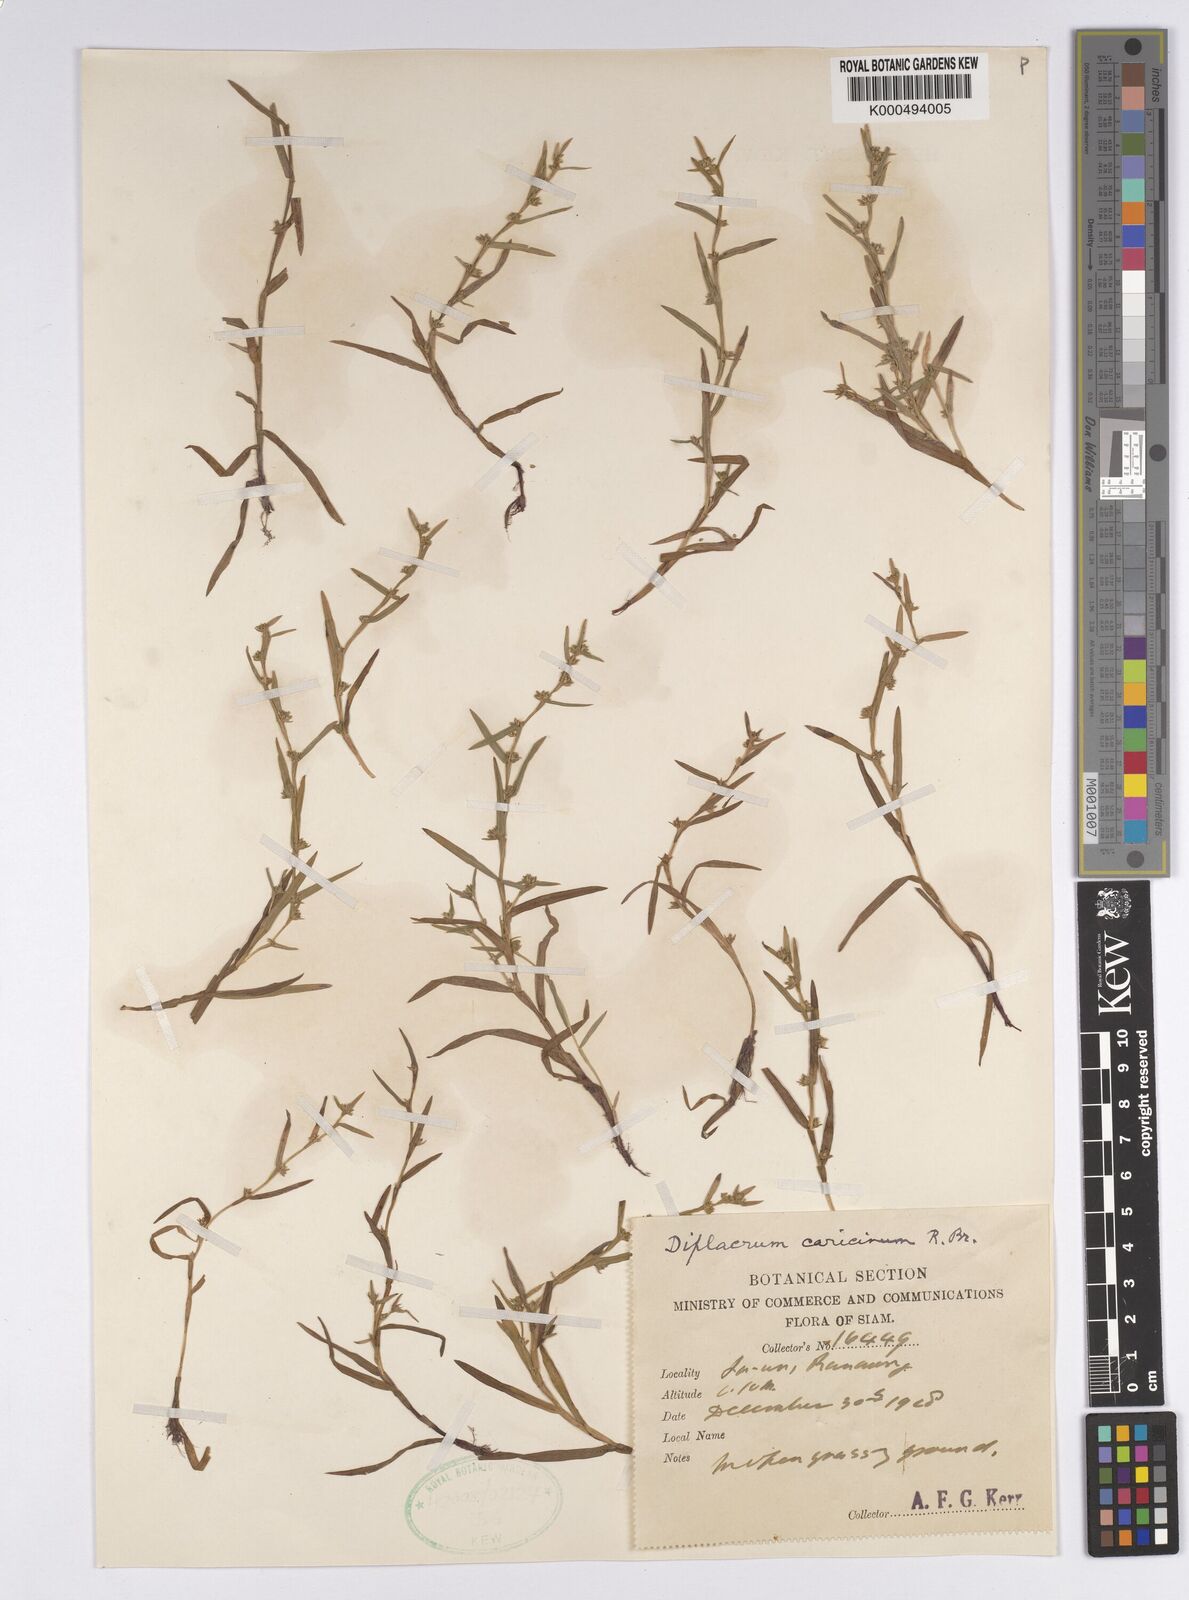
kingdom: Plantae
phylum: Tracheophyta
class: Liliopsida
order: Poales
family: Cyperaceae
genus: Diplacrum
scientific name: Diplacrum caricinum
